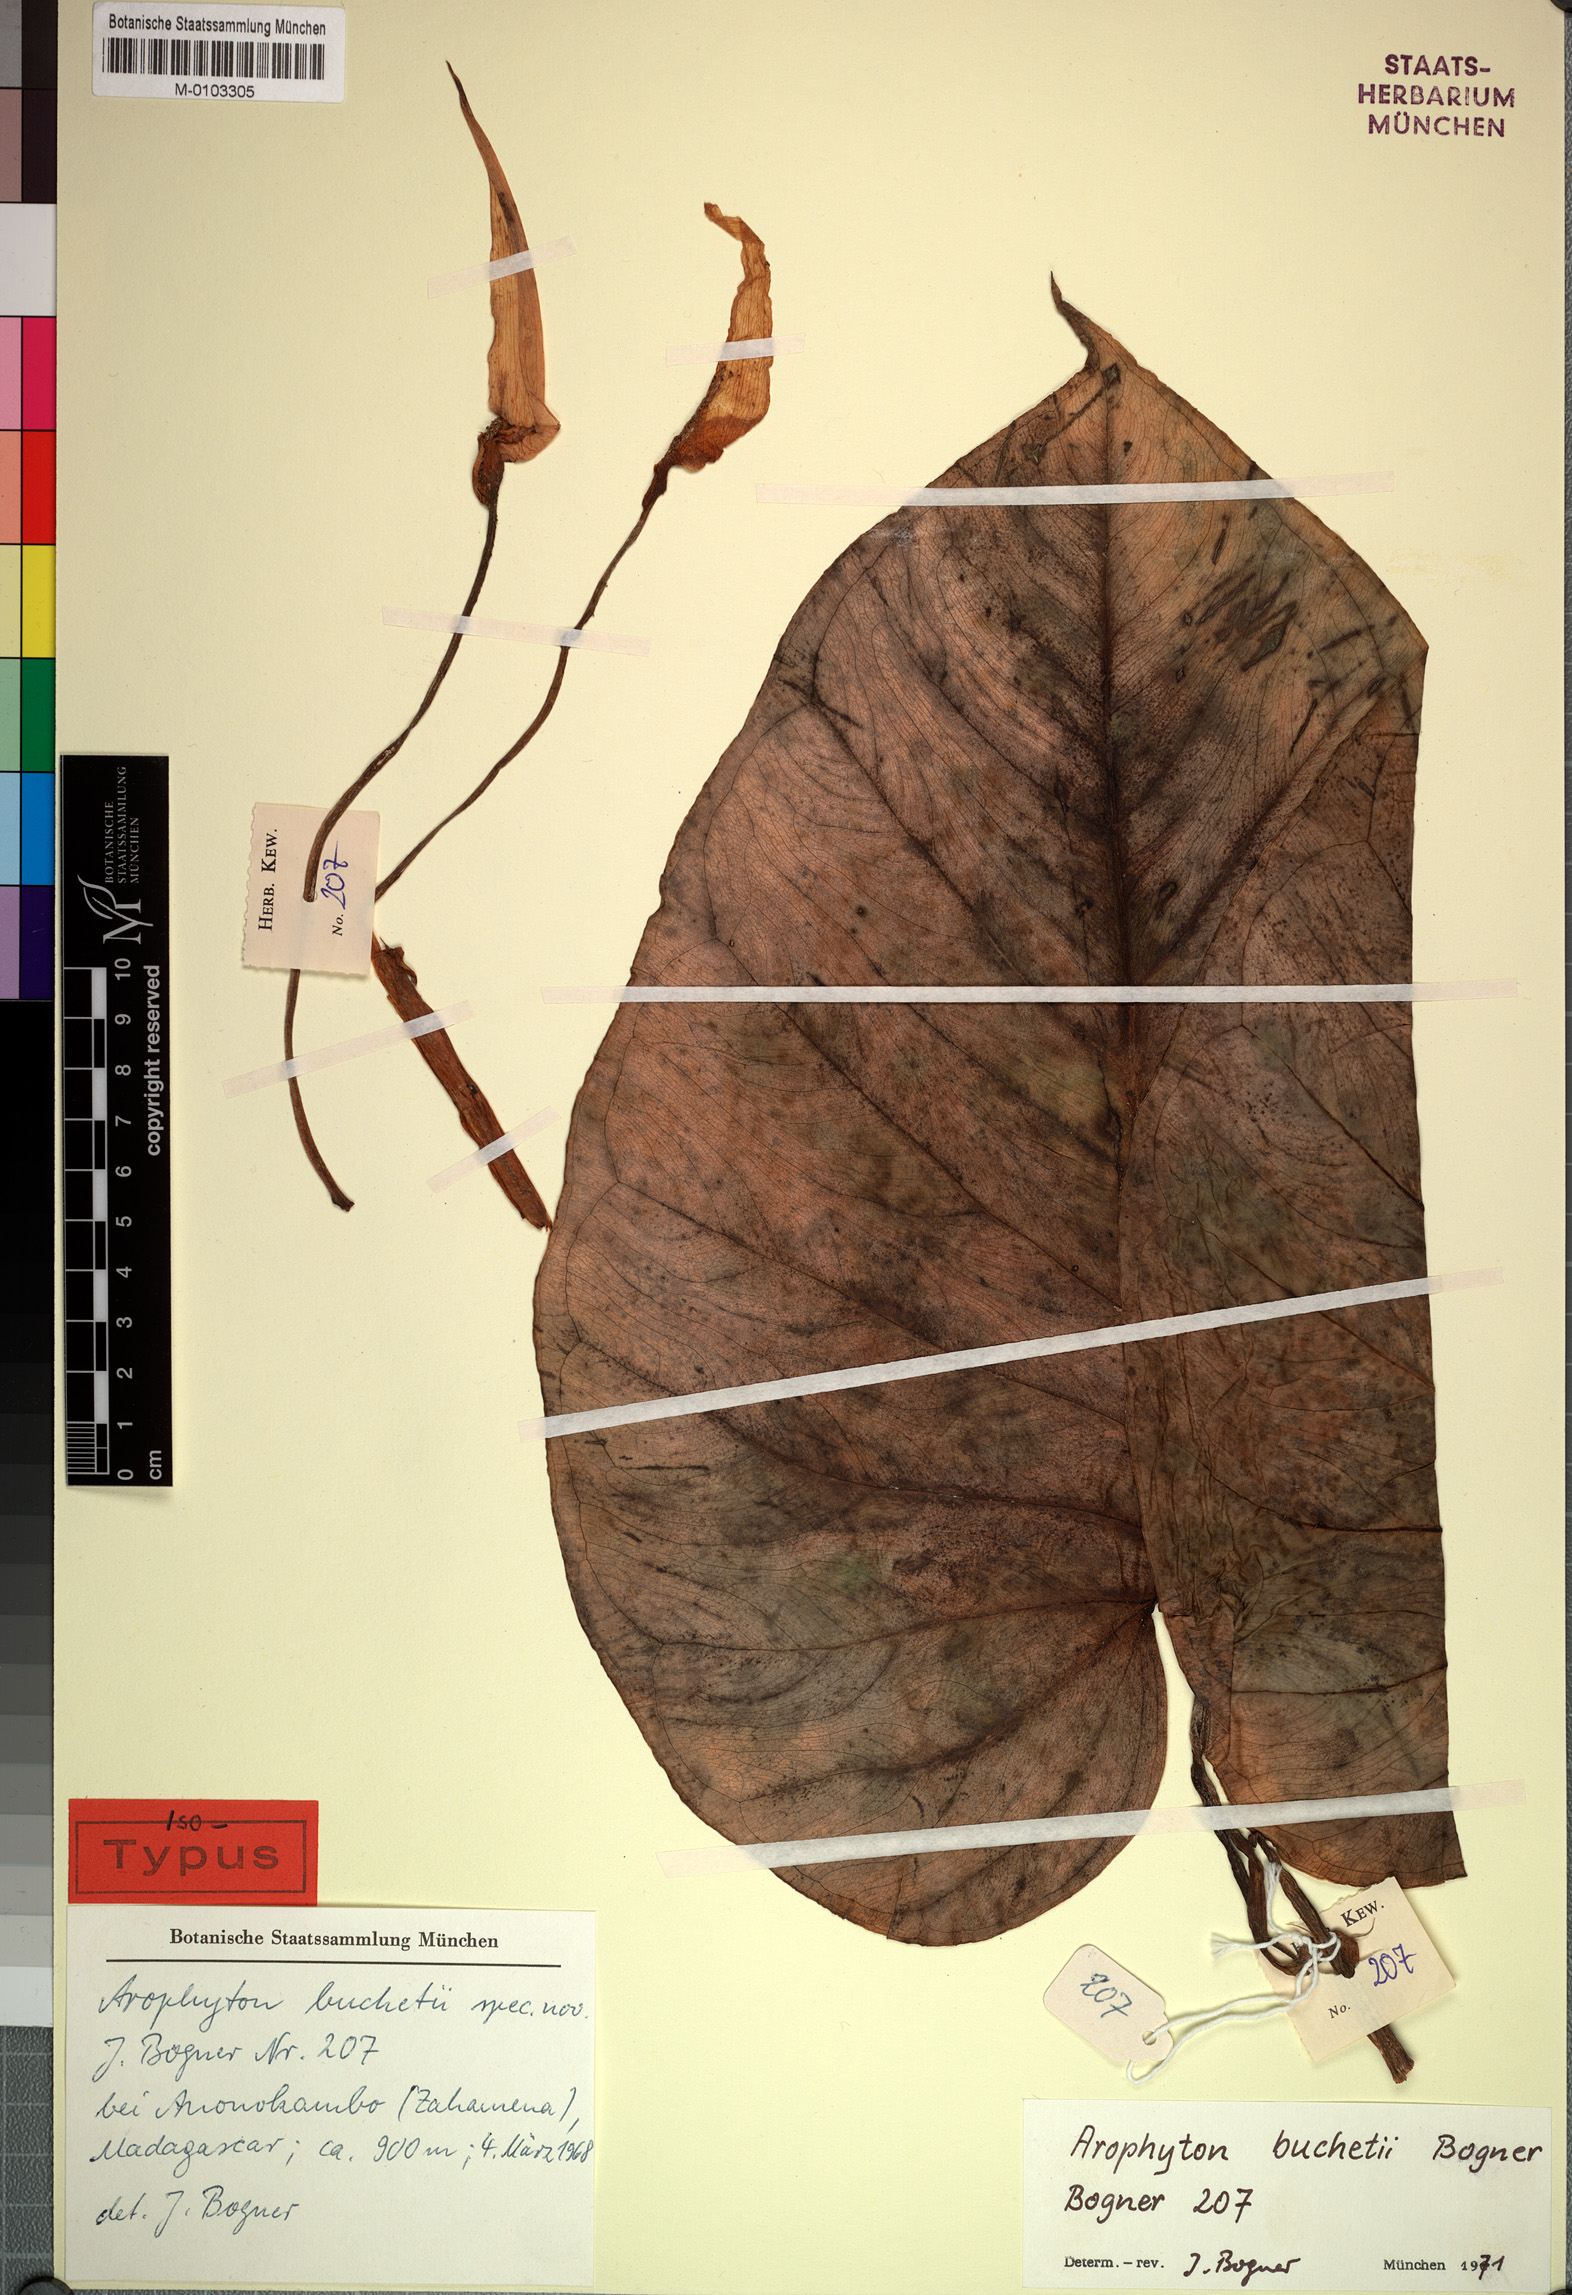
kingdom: Plantae
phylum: Tracheophyta
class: Liliopsida
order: Alismatales
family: Araceae
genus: Arophyton
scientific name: Arophyton buchetii
